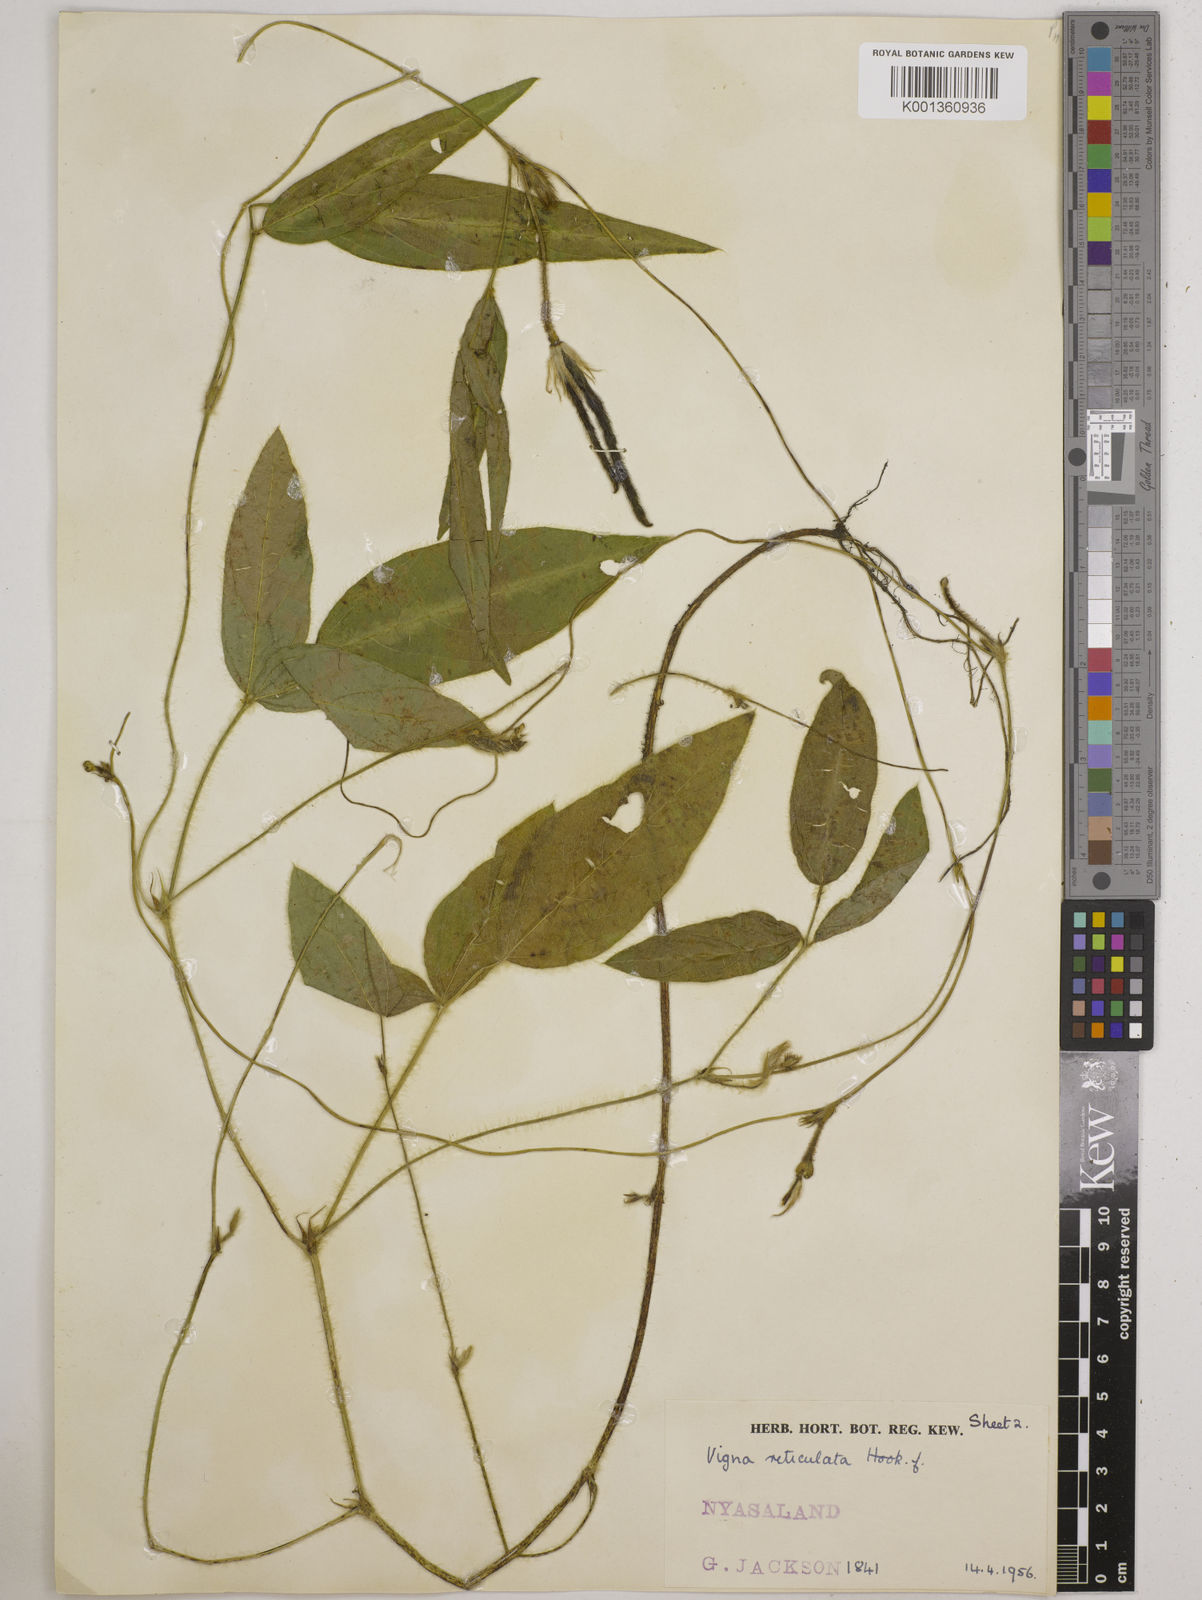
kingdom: Plantae
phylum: Tracheophyta
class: Magnoliopsida
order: Fabales
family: Fabaceae
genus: Vigna
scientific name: Vigna reticulata
